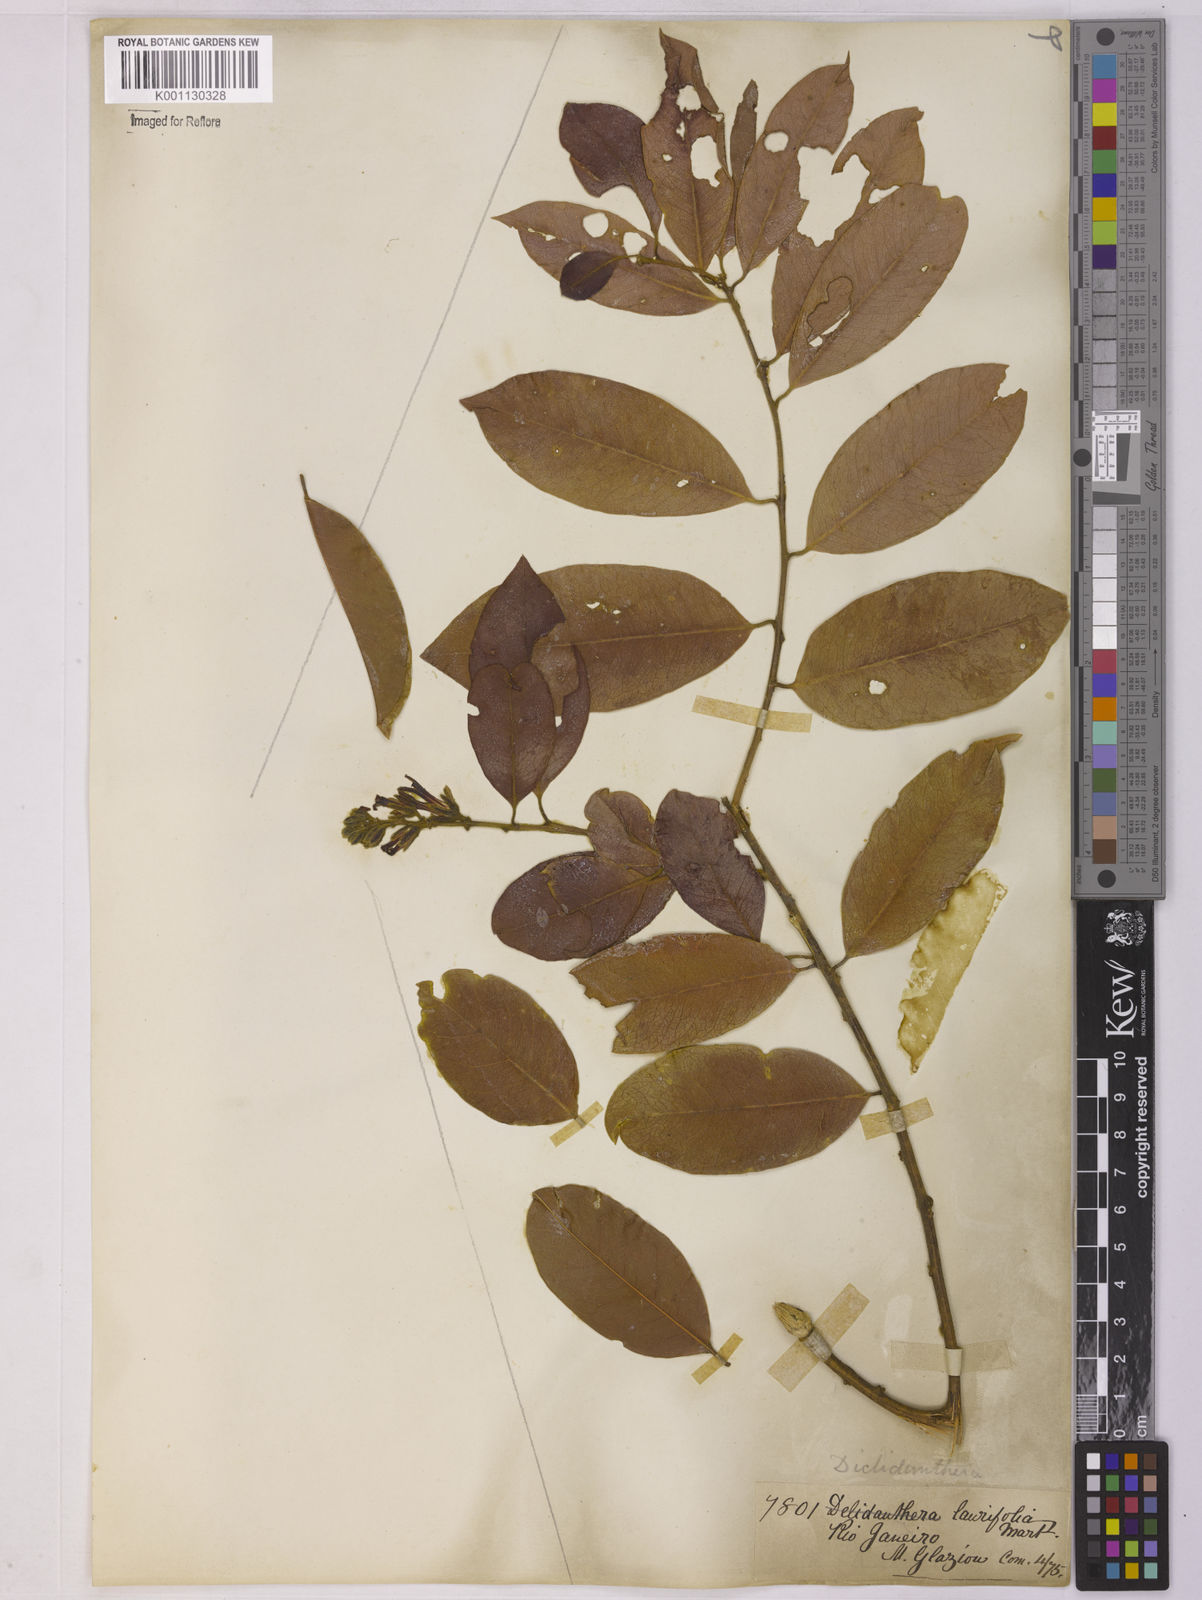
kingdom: Plantae
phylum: Tracheophyta
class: Magnoliopsida
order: Fabales
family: Polygalaceae
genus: Diclidanthera
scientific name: Diclidanthera laurifolia
